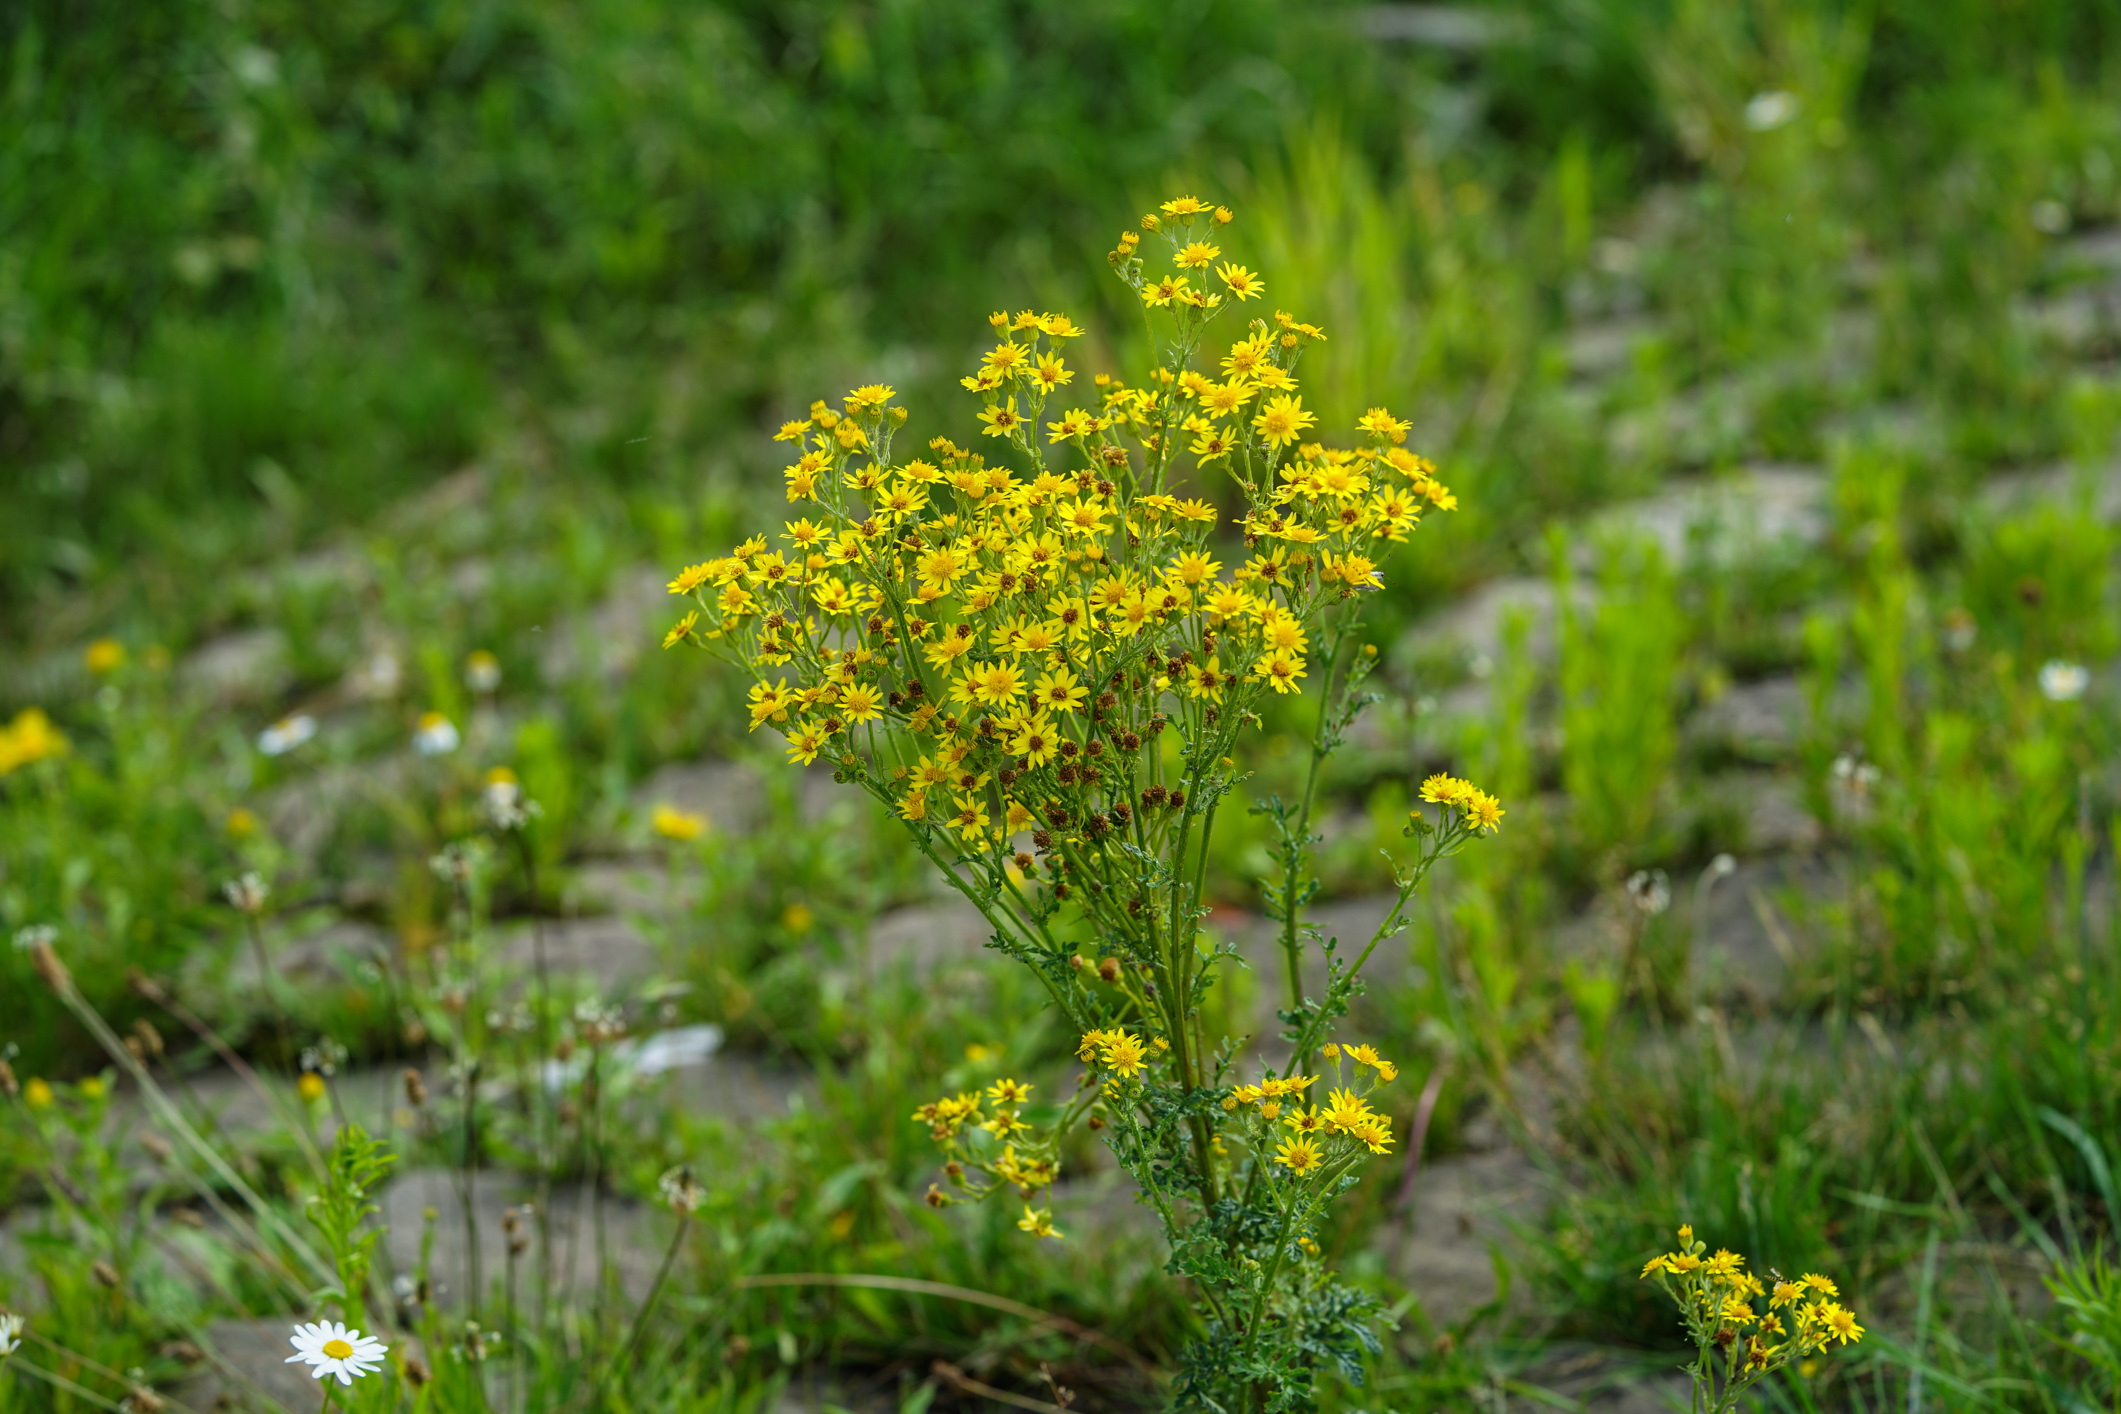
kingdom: Plantae
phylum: Tracheophyta
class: Magnoliopsida
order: Asterales
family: Asteraceae
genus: Senecio
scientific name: Senecio jacobaea
